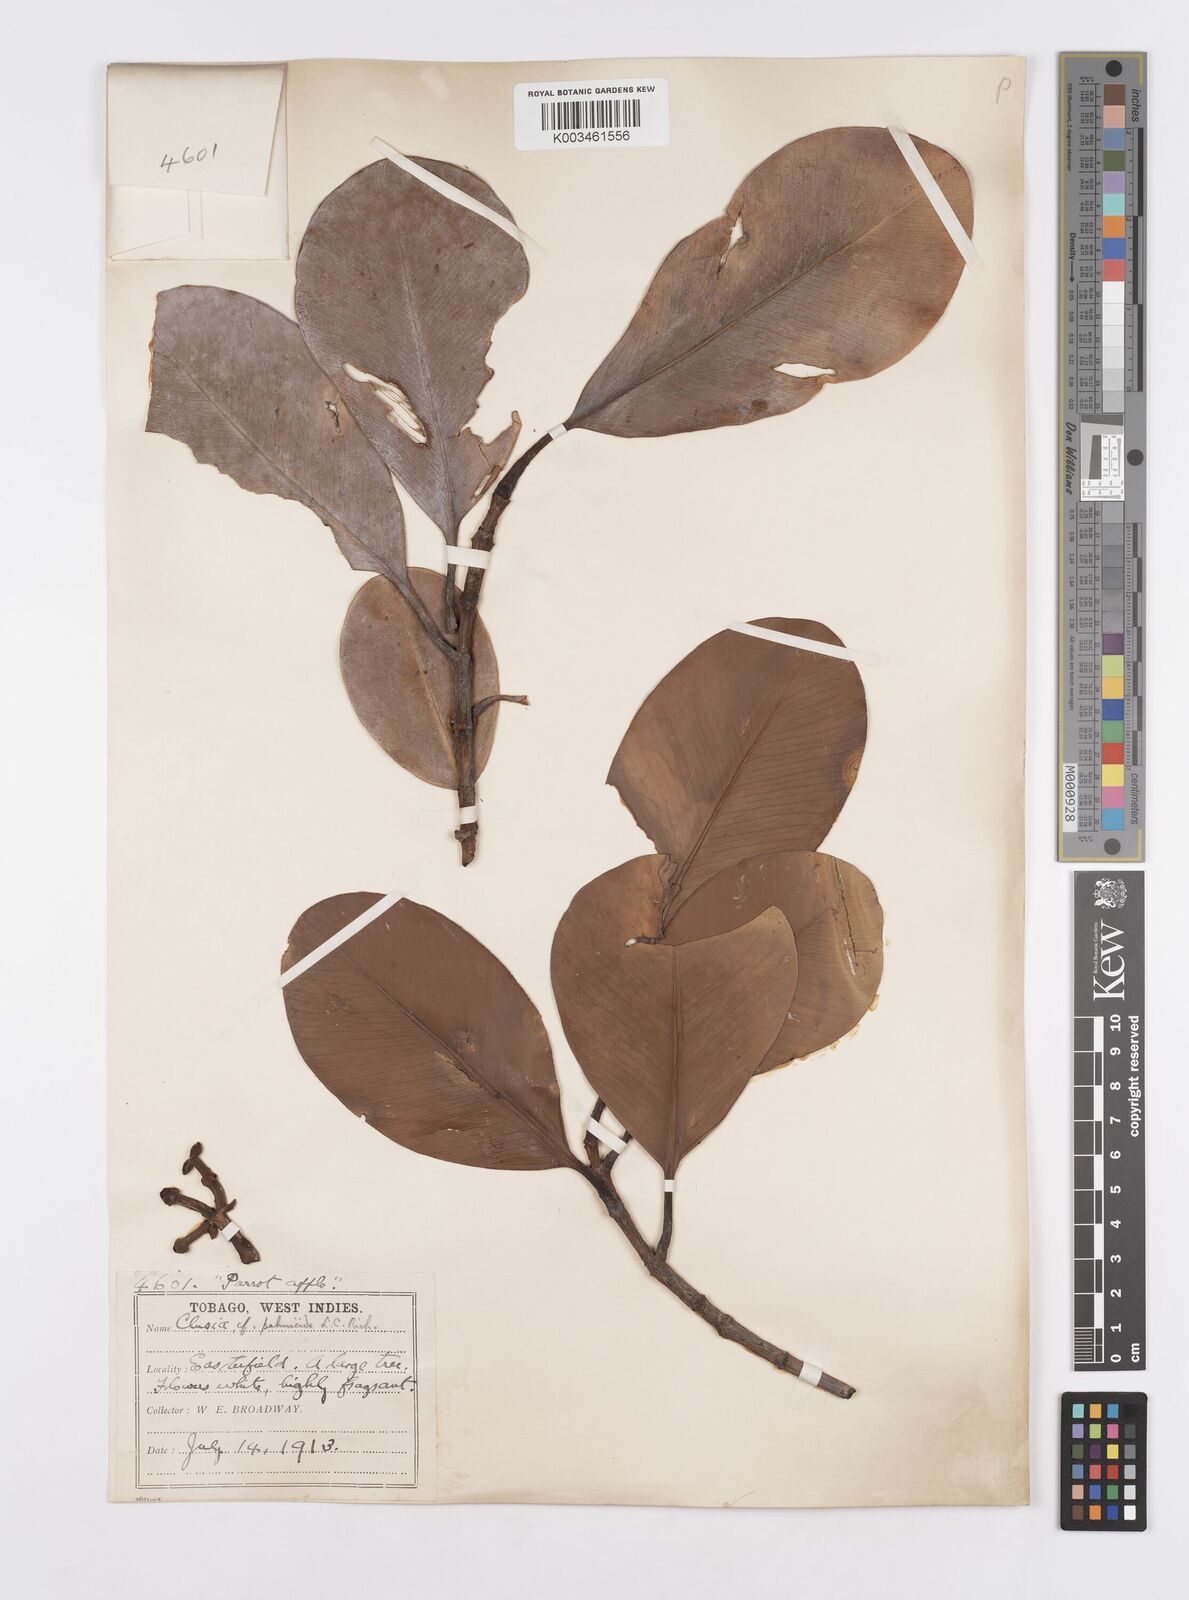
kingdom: Plantae
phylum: Tracheophyta
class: Magnoliopsida
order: Malpighiales
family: Clusiaceae
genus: Clusia
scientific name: Clusia palmicida
